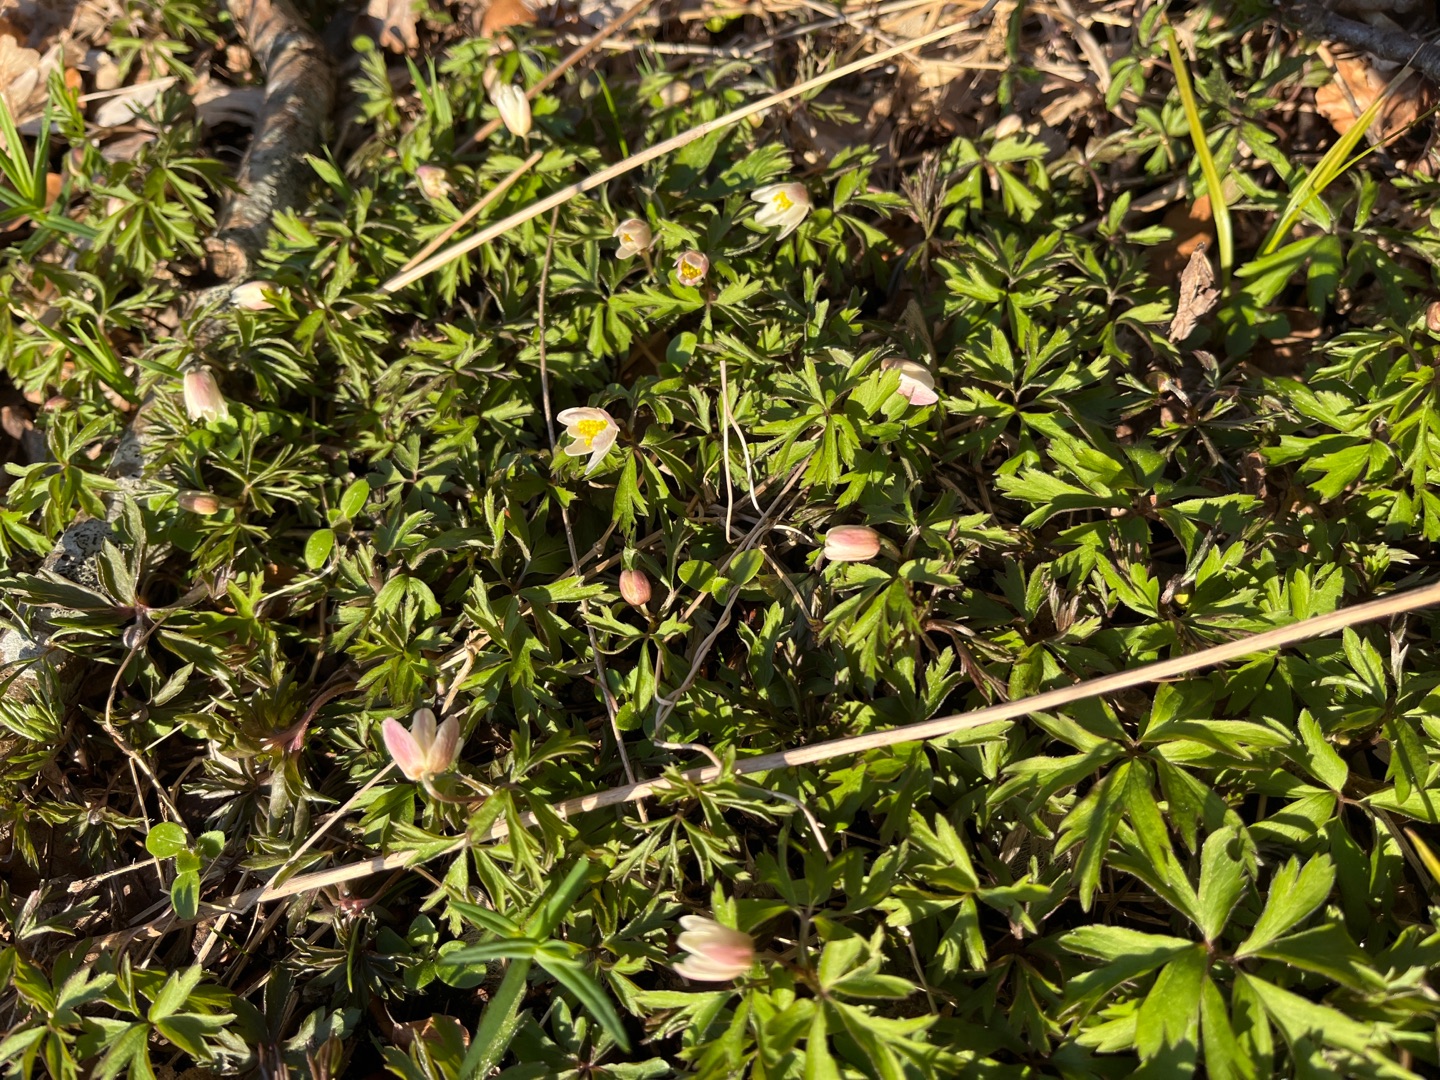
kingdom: Plantae
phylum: Tracheophyta
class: Magnoliopsida
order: Ranunculales
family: Ranunculaceae
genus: Anemone
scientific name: Anemone nemorosa
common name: Hvid anemone
